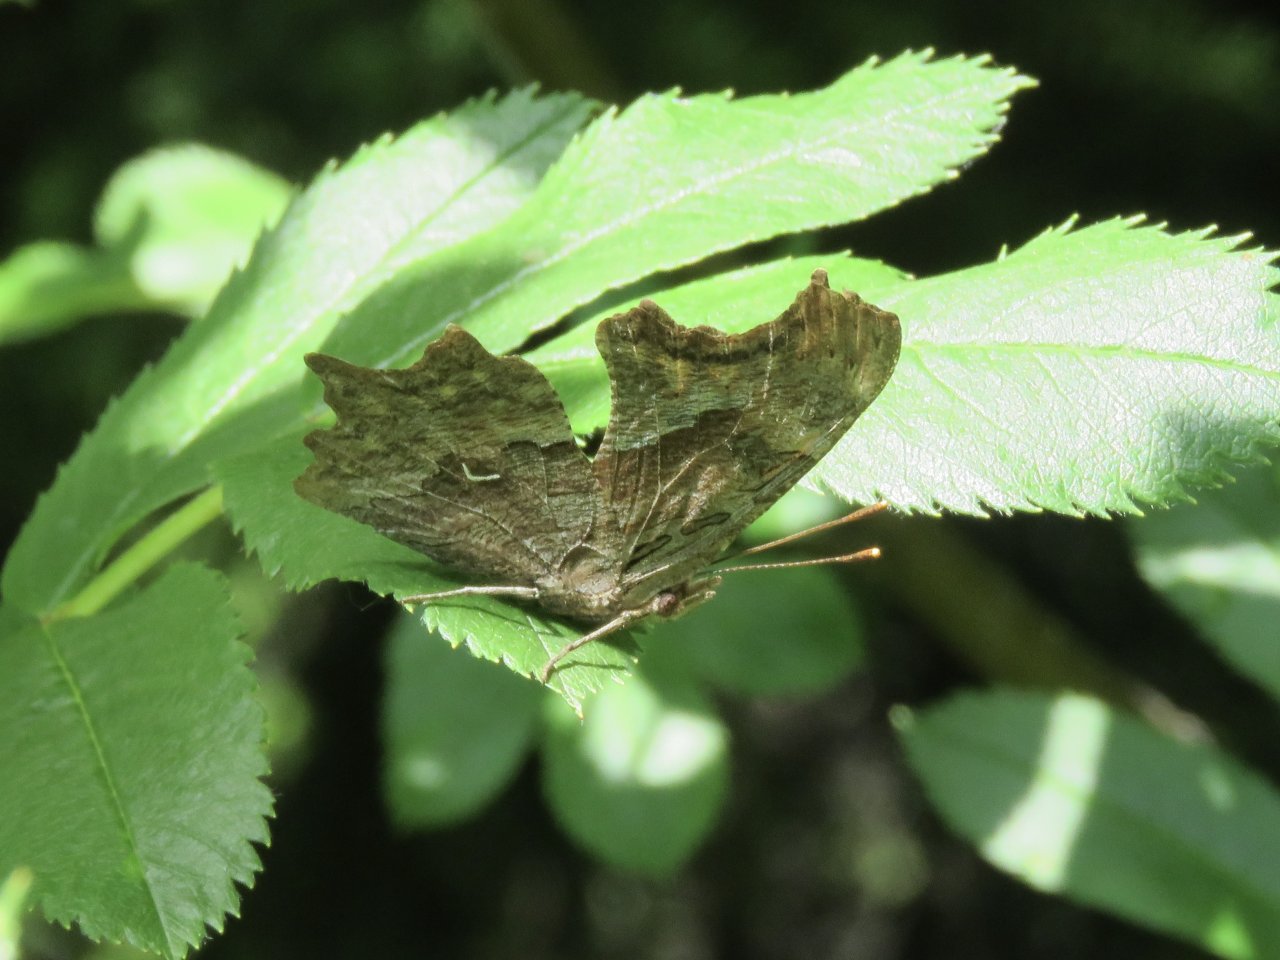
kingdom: Animalia
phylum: Arthropoda
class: Insecta
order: Lepidoptera
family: Nymphalidae
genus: Polygonia
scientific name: Polygonia satyrus
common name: Satyr Comma
